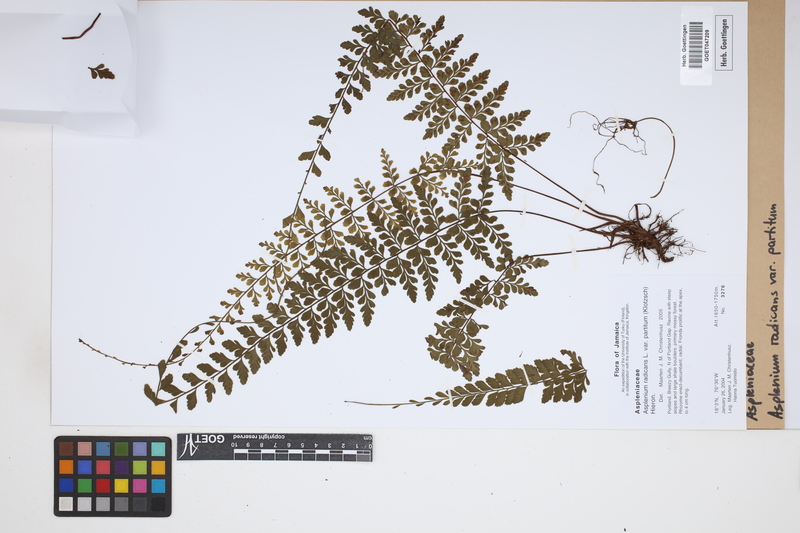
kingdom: Plantae
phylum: Tracheophyta
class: Polypodiopsida
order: Polypodiales
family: Aspleniaceae
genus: Asplenium
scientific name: Asplenium flabellulatum
